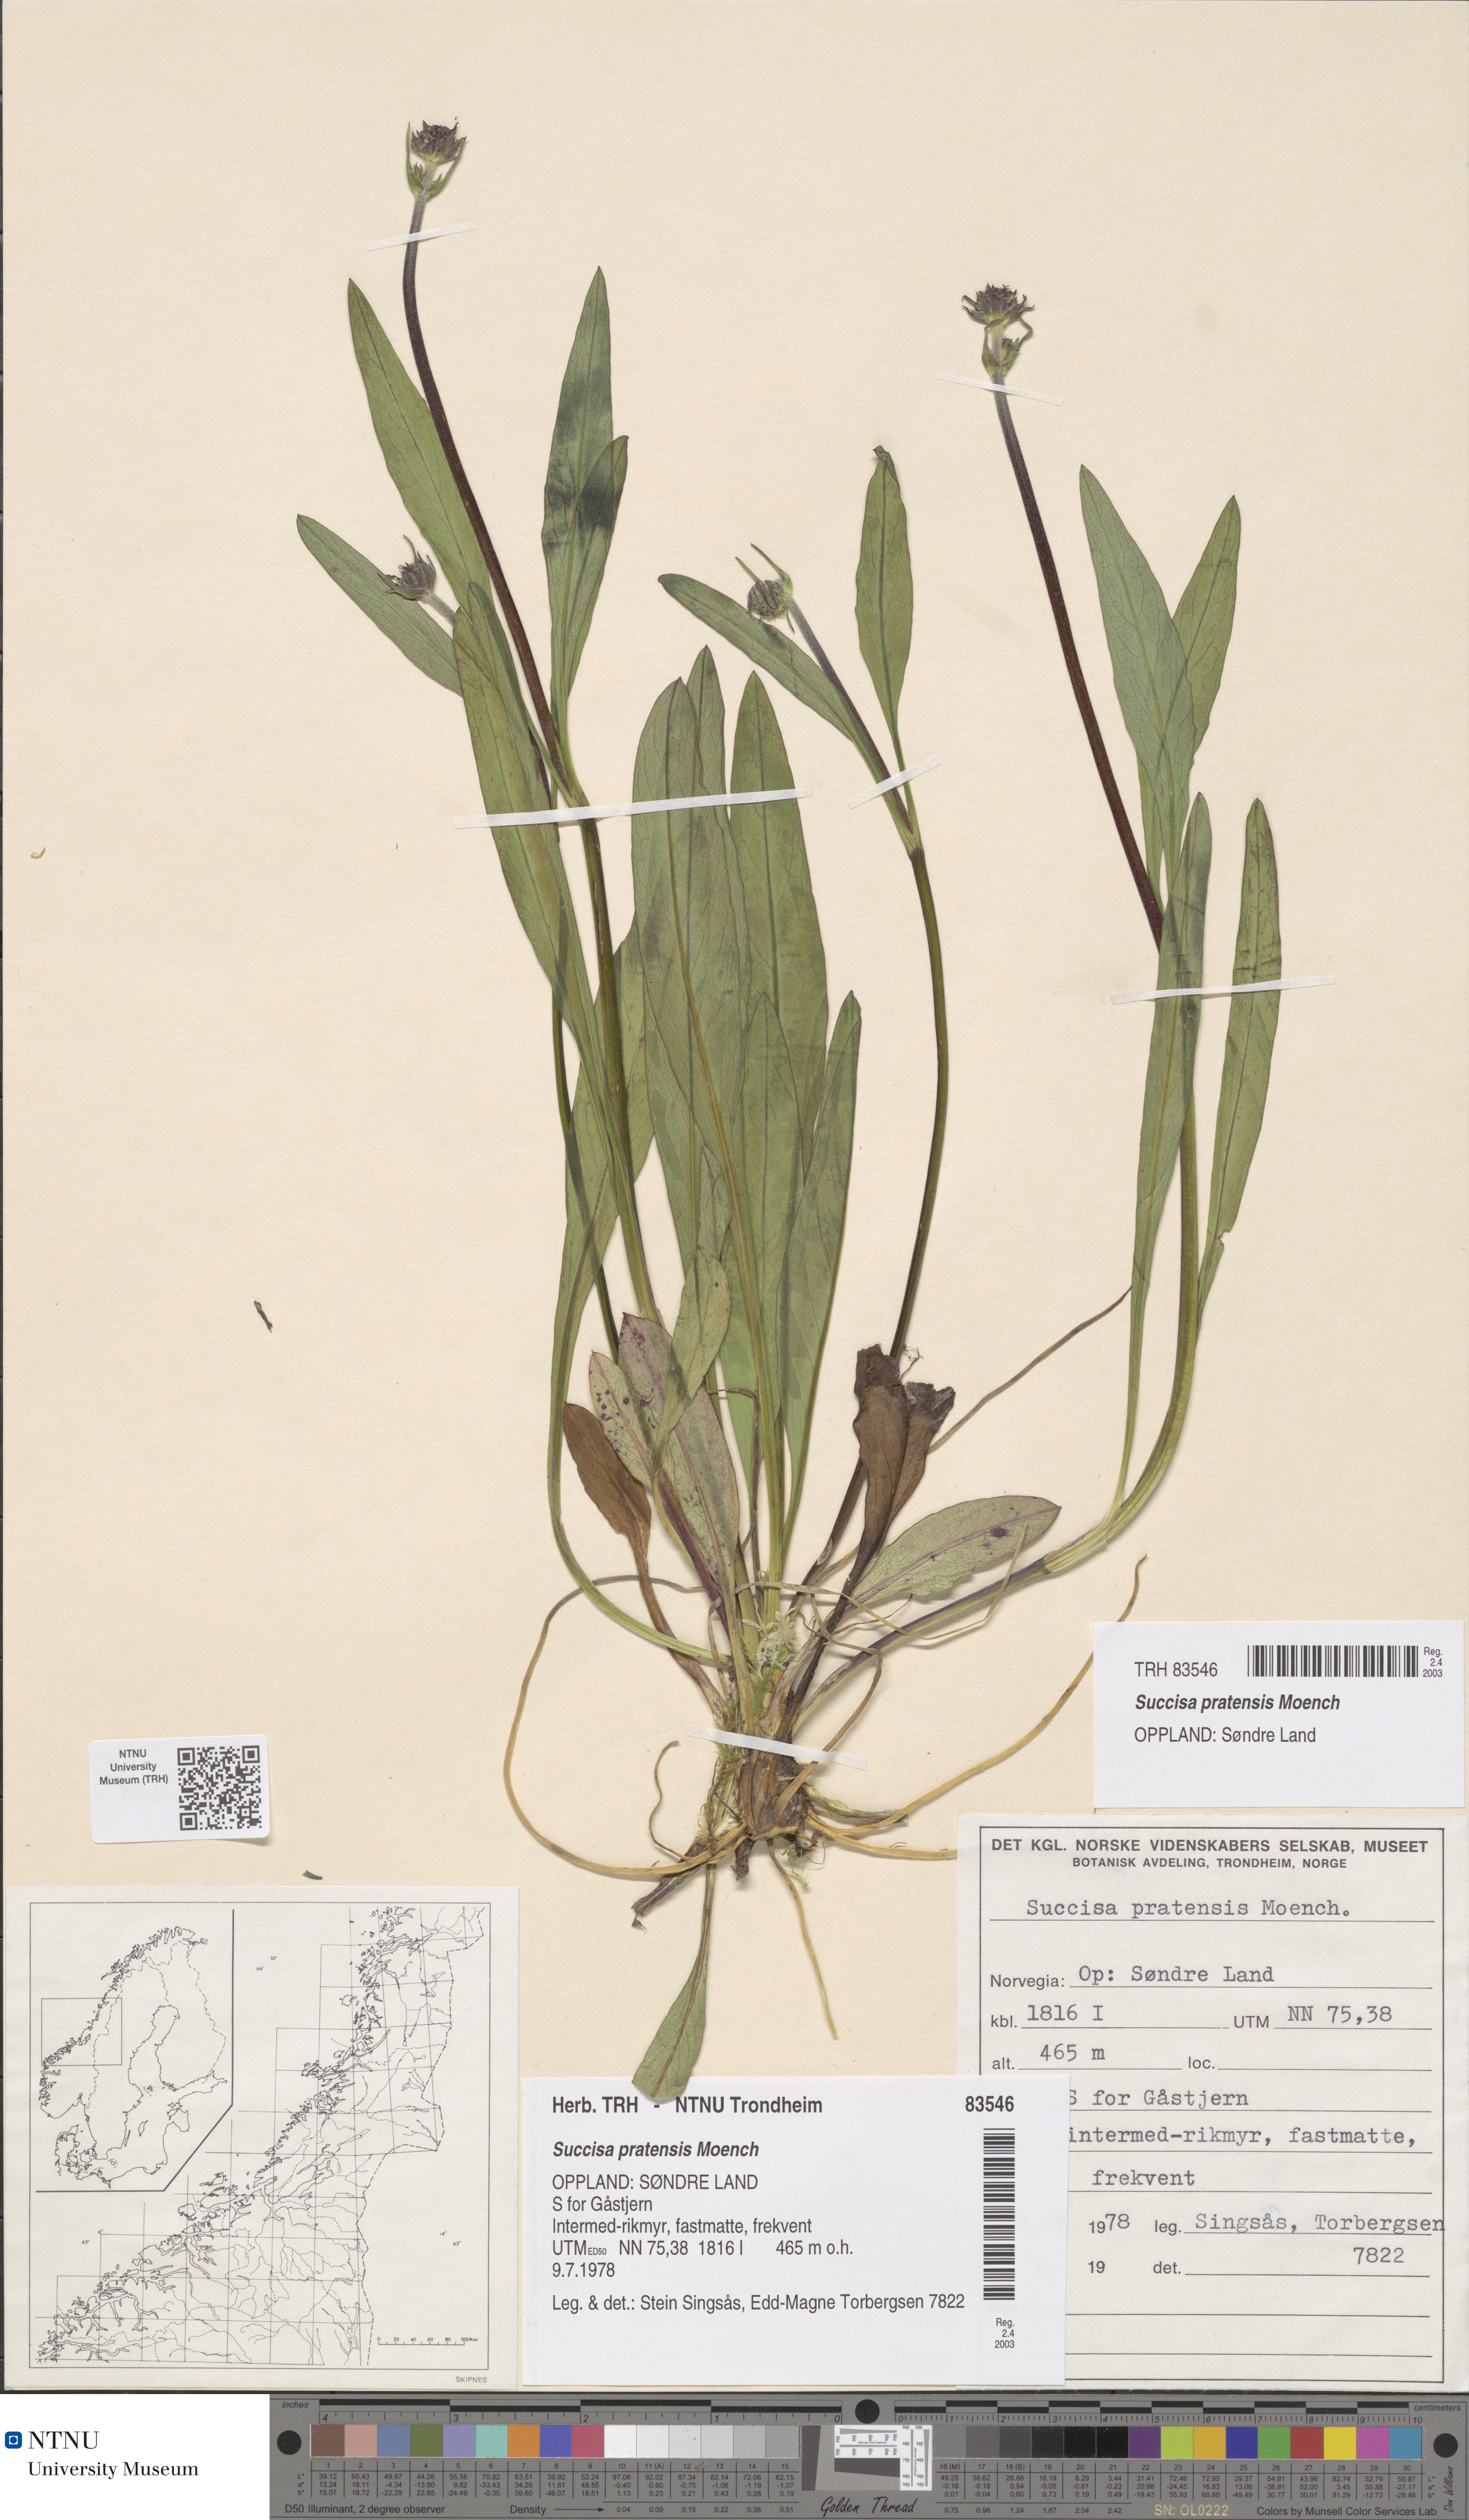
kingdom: Plantae
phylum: Tracheophyta
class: Magnoliopsida
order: Dipsacales
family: Caprifoliaceae
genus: Succisa
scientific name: Succisa pratensis
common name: Devil's-bit
